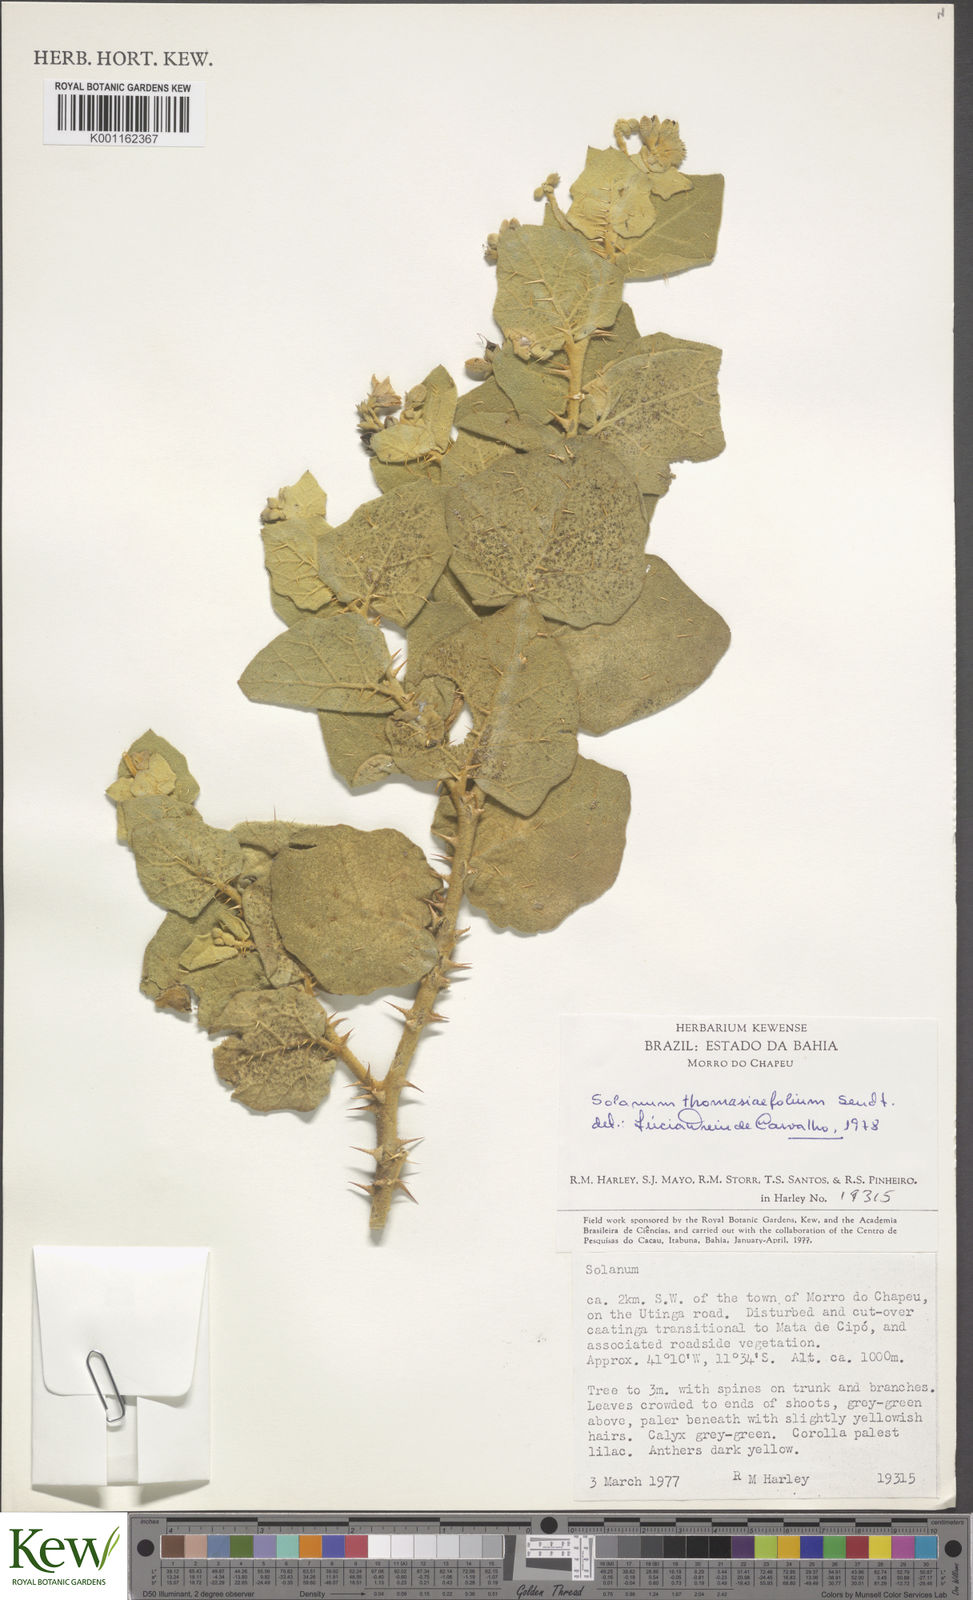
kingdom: Plantae
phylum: Tracheophyta
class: Magnoliopsida
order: Solanales
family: Solanaceae
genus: Solanum
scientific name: Solanum thomasiifolium
